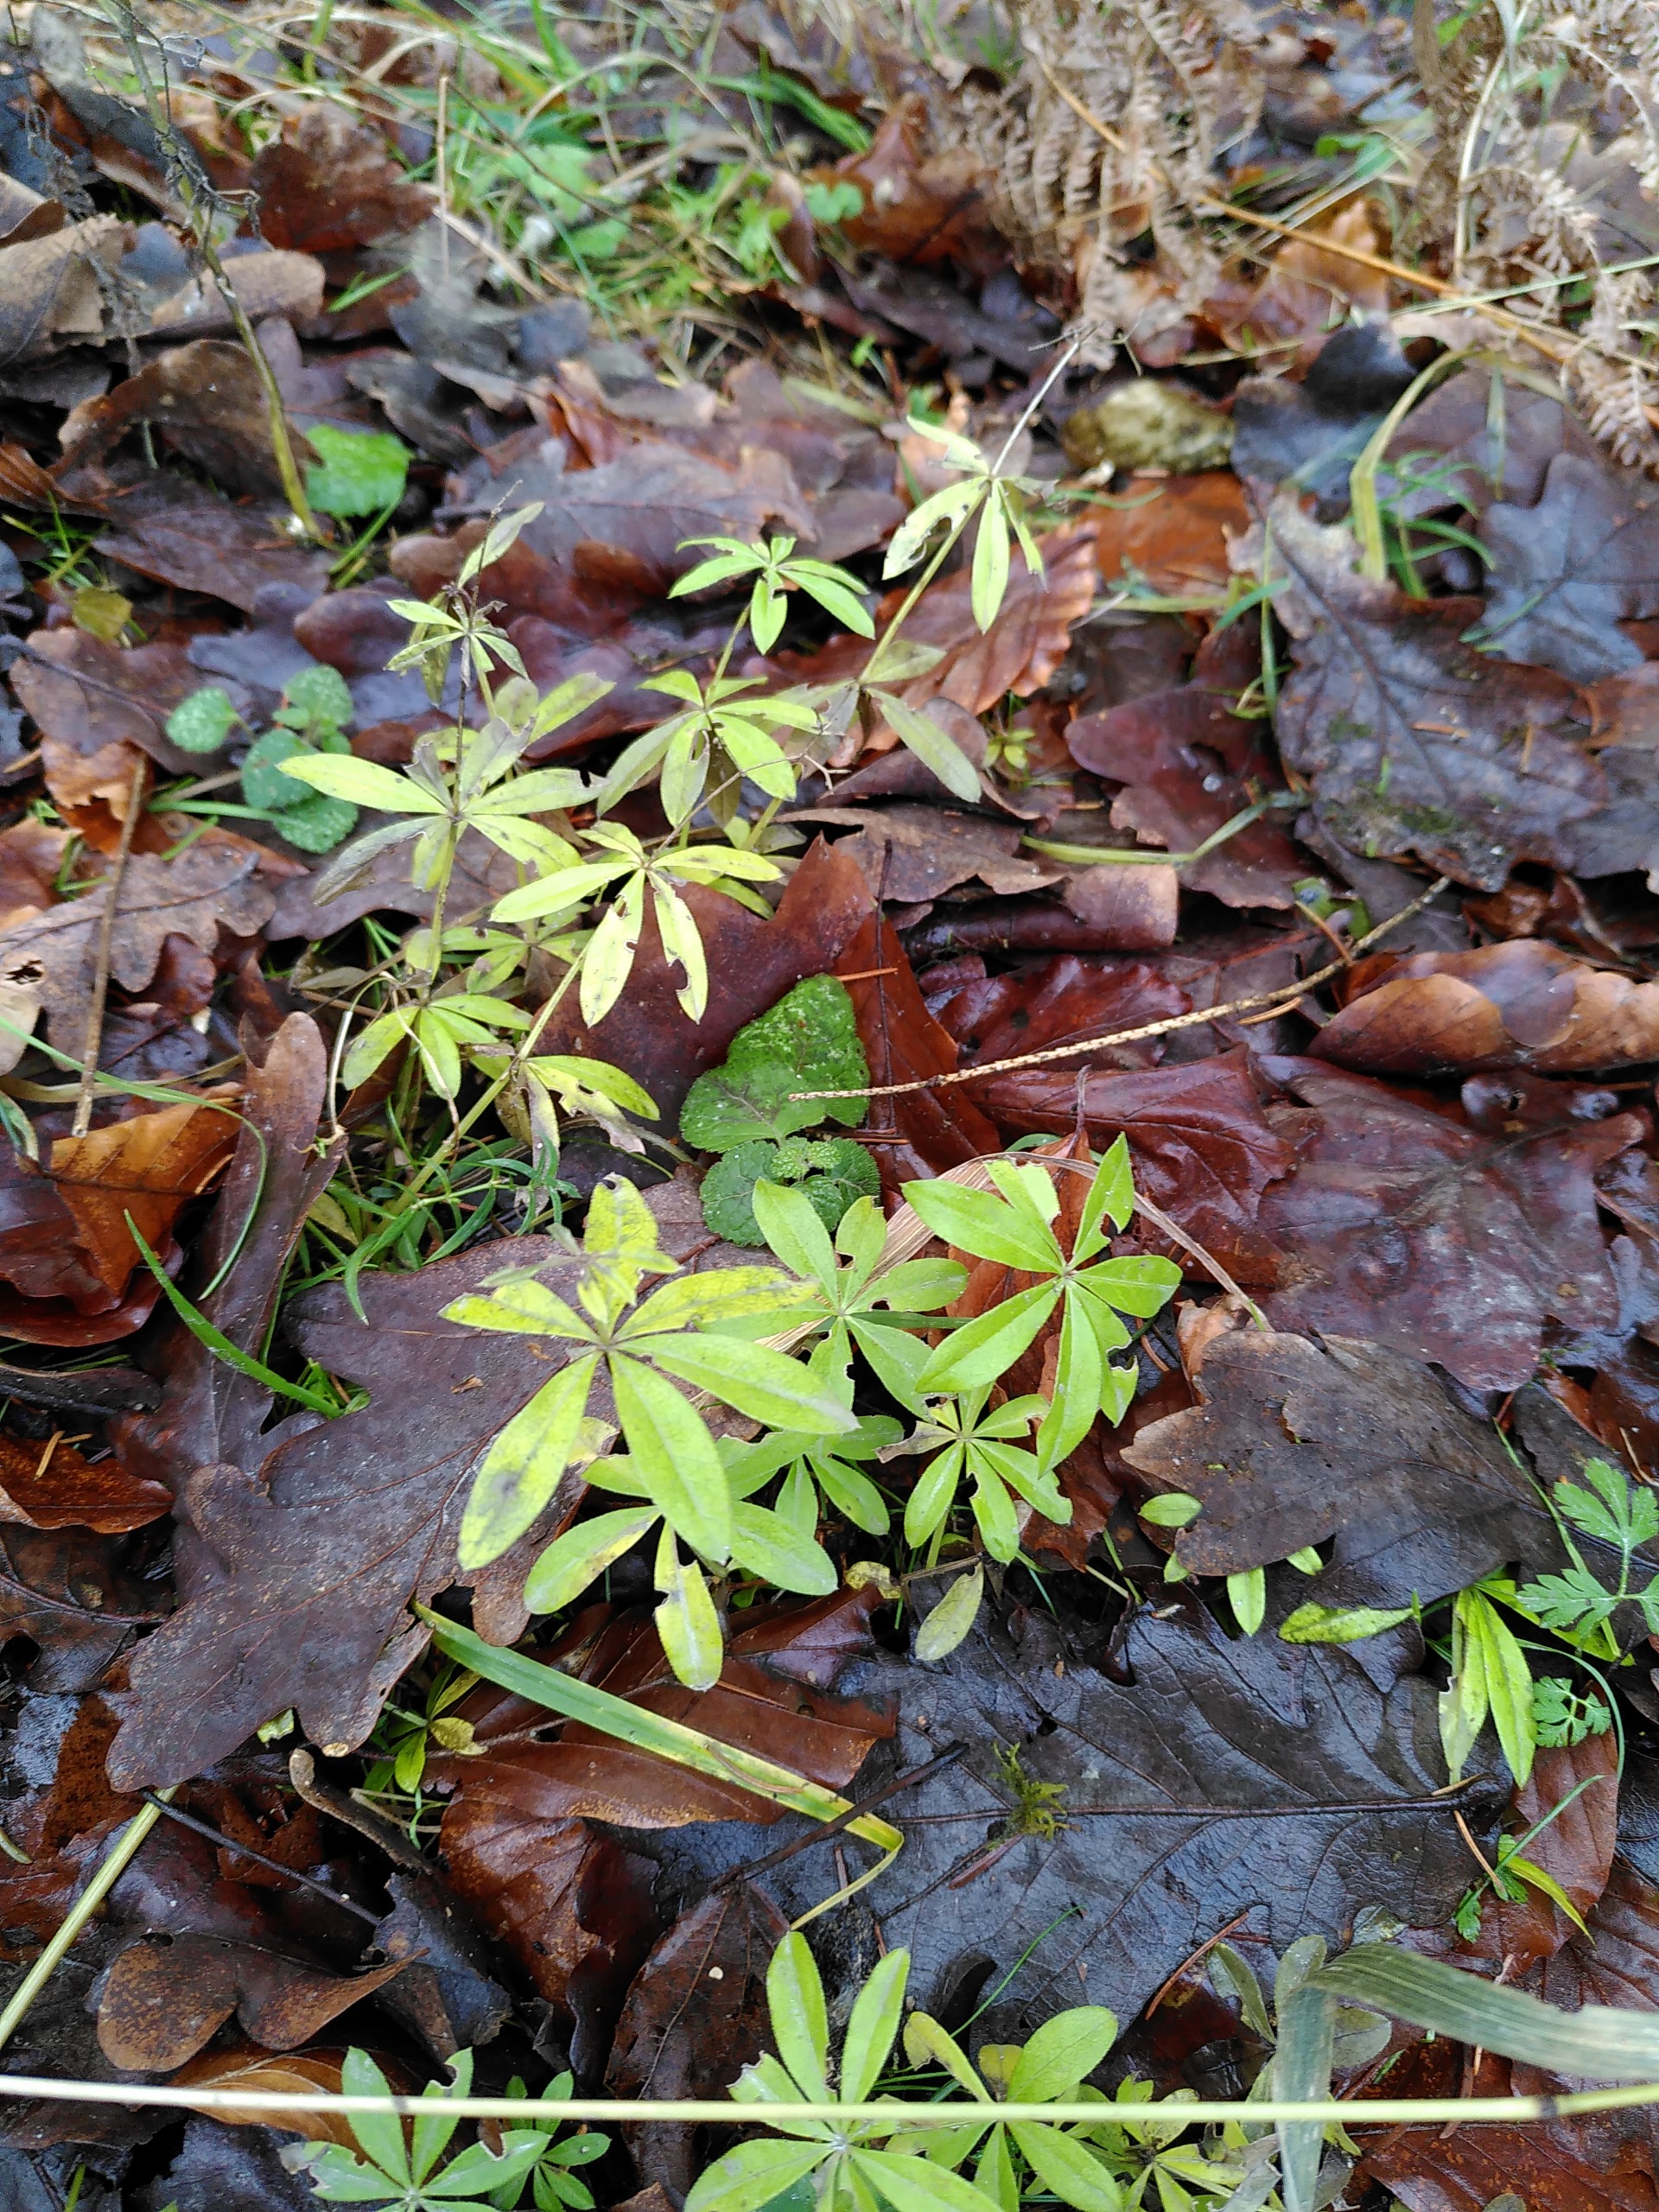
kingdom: Plantae
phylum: Tracheophyta
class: Magnoliopsida
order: Gentianales
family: Rubiaceae
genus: Galium
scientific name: Galium odoratum
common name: Skovmærke
